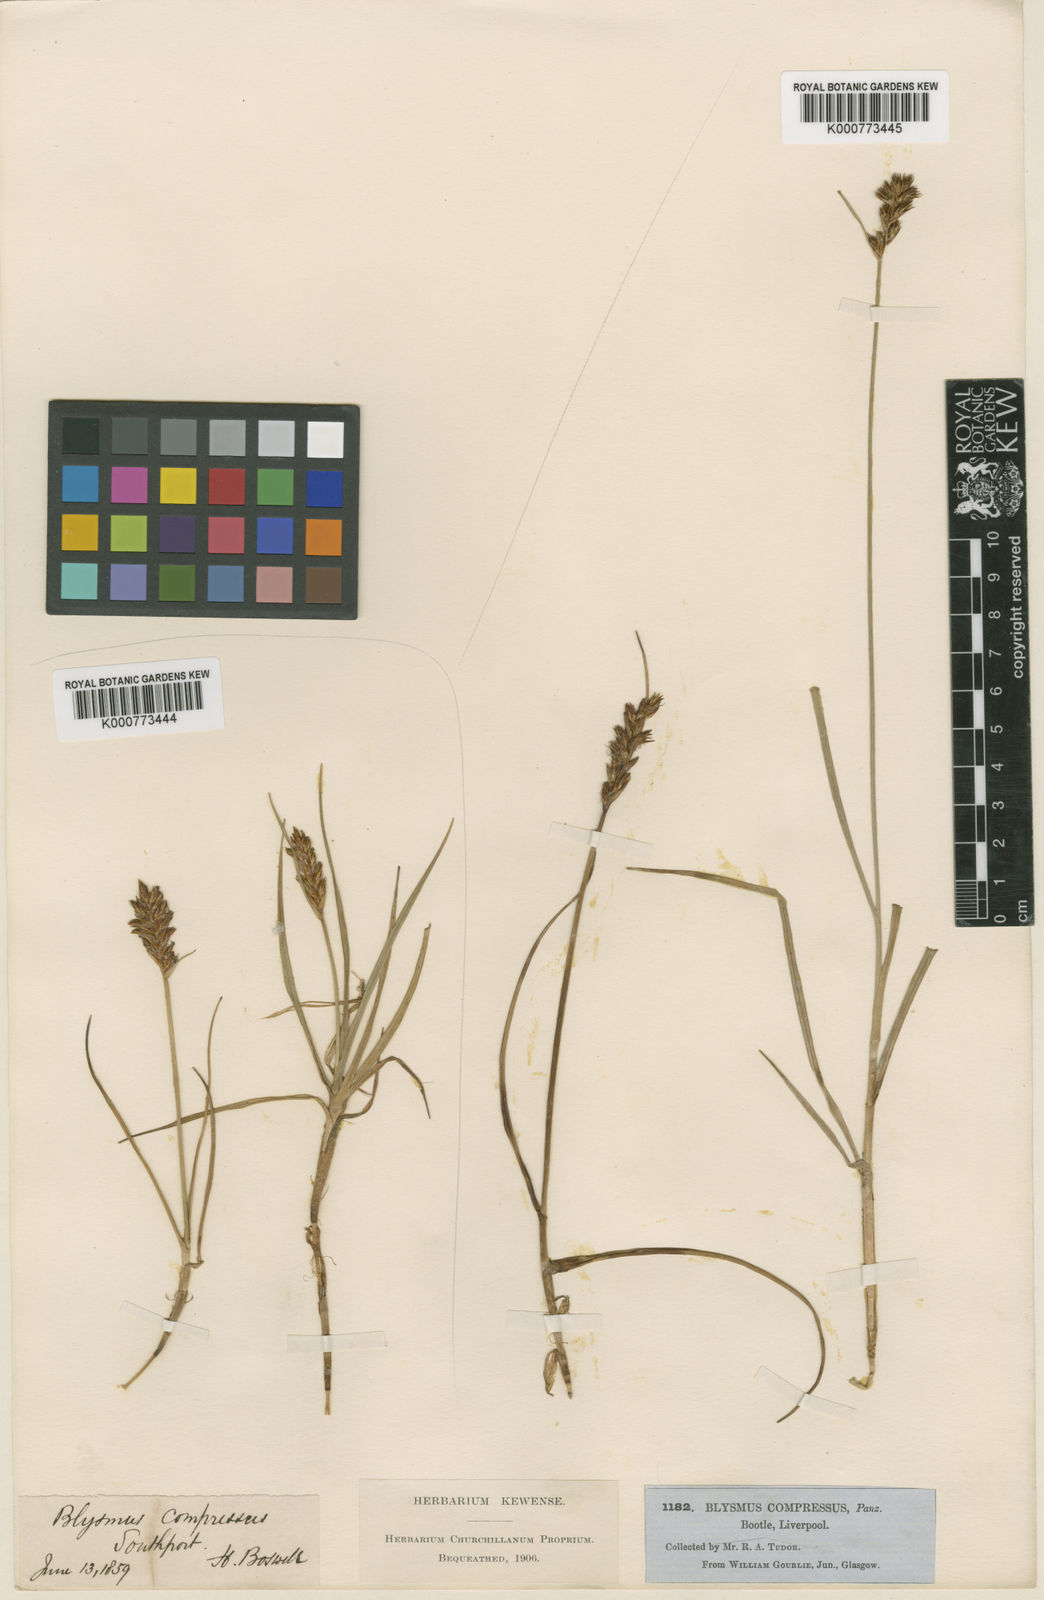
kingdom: Plantae
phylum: Tracheophyta
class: Liliopsida
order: Poales
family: Cyperaceae
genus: Blysmus
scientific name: Blysmus compressus
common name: Flat-sedge
